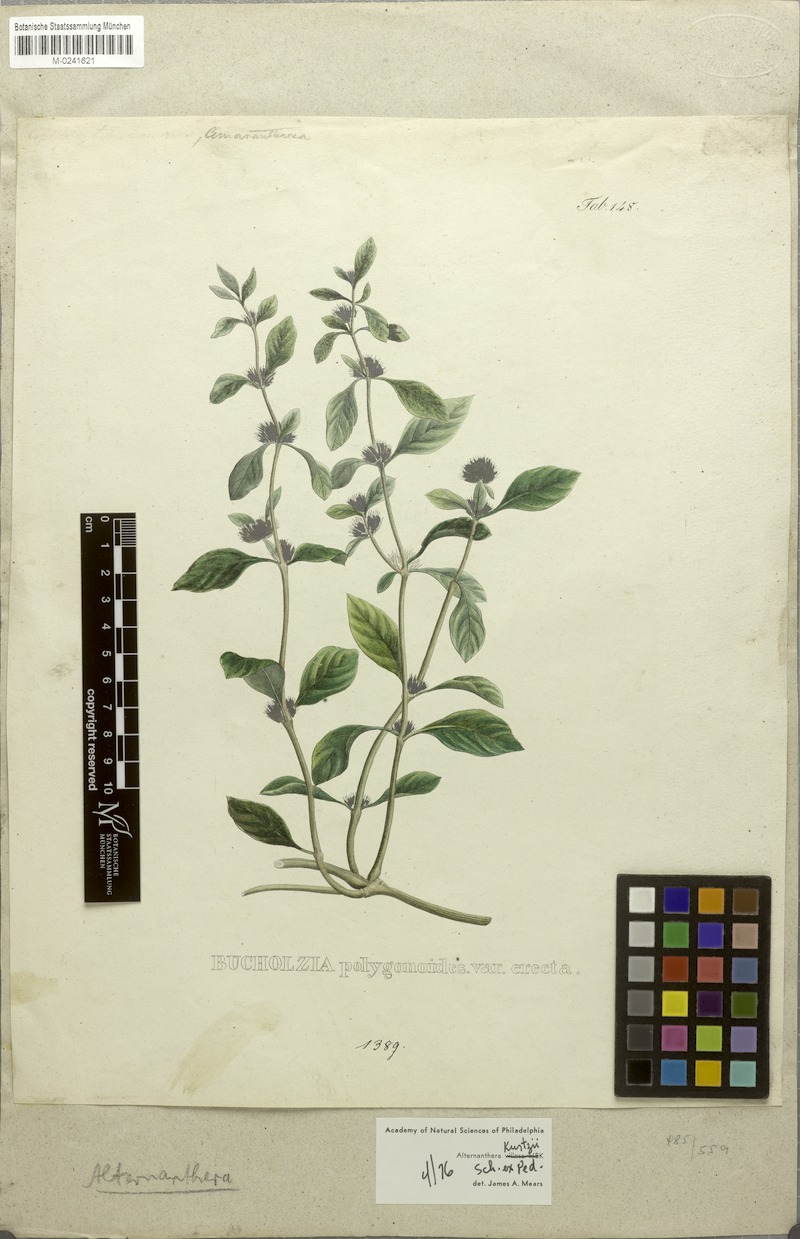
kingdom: Plantae
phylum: Tracheophyta
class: Magnoliopsida
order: Caryophyllales
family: Amaranthaceae
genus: Alternanthera
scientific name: Alternanthera ficoidea
